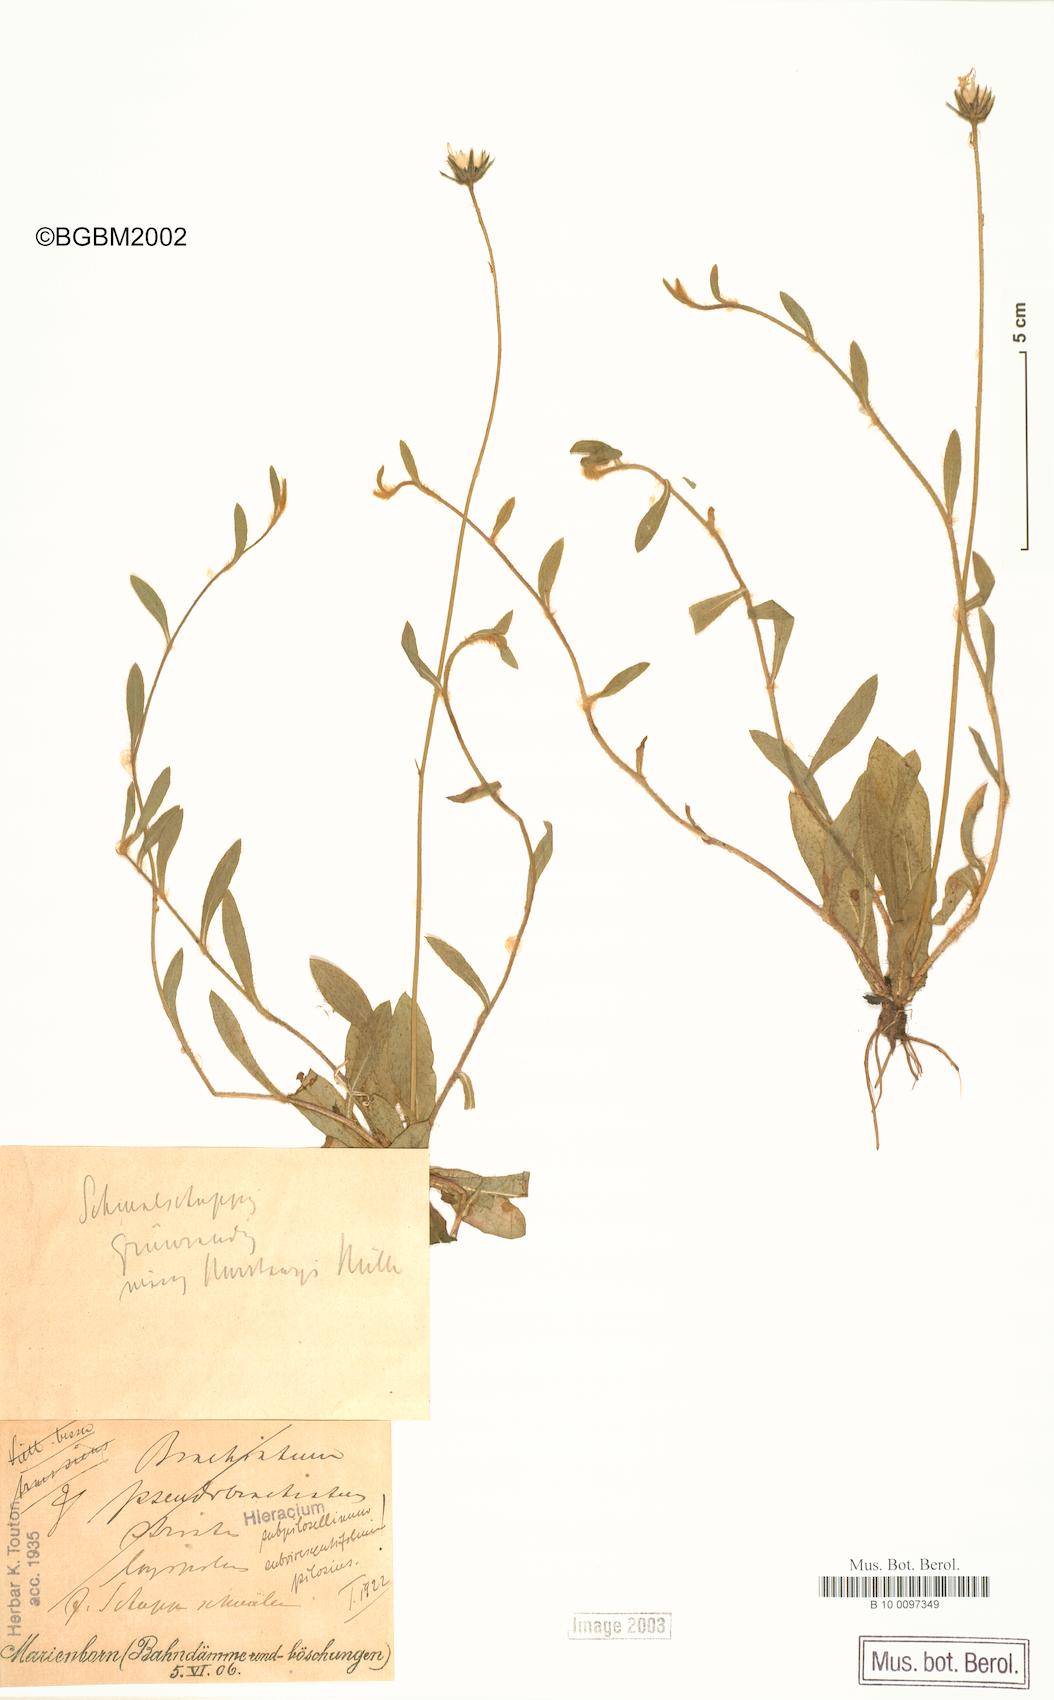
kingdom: Plantae
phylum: Tracheophyta
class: Magnoliopsida
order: Asterales
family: Asteraceae
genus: Pilosella
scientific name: Pilosella acutifolia
